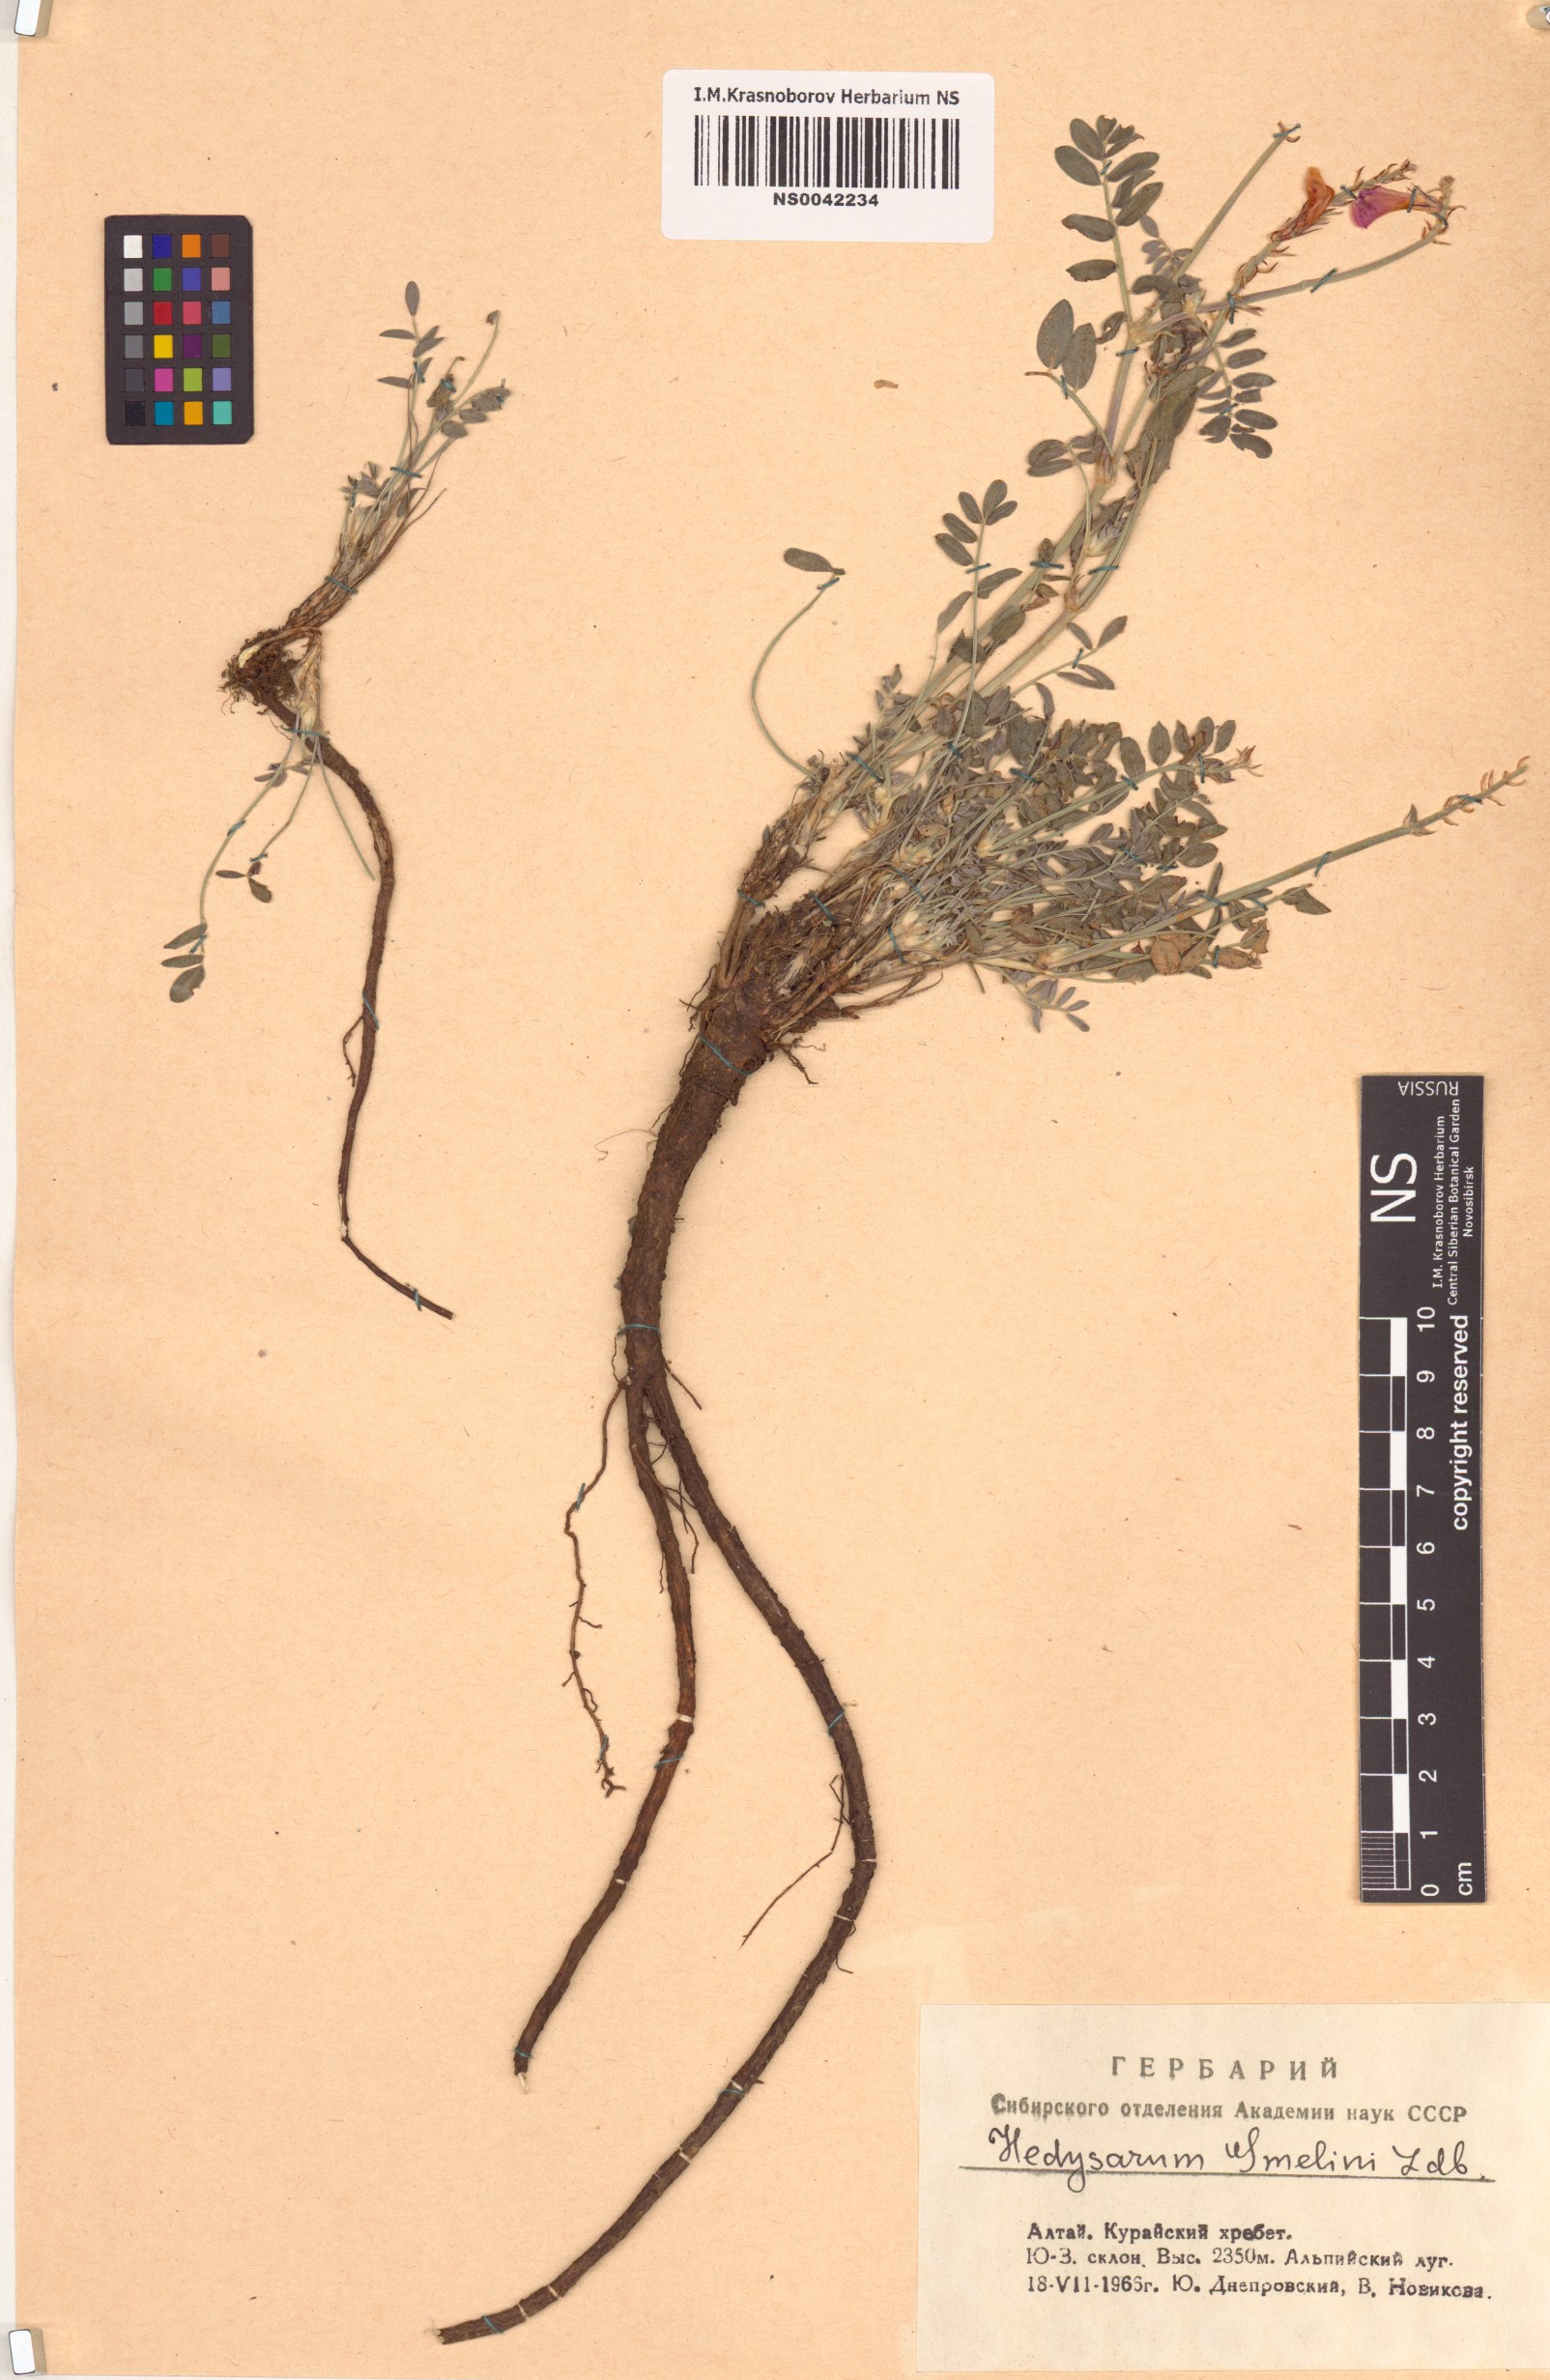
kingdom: Plantae
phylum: Tracheophyta
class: Magnoliopsida
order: Fabales
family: Fabaceae
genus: Hedysarum
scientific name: Hedysarum gmelinii
